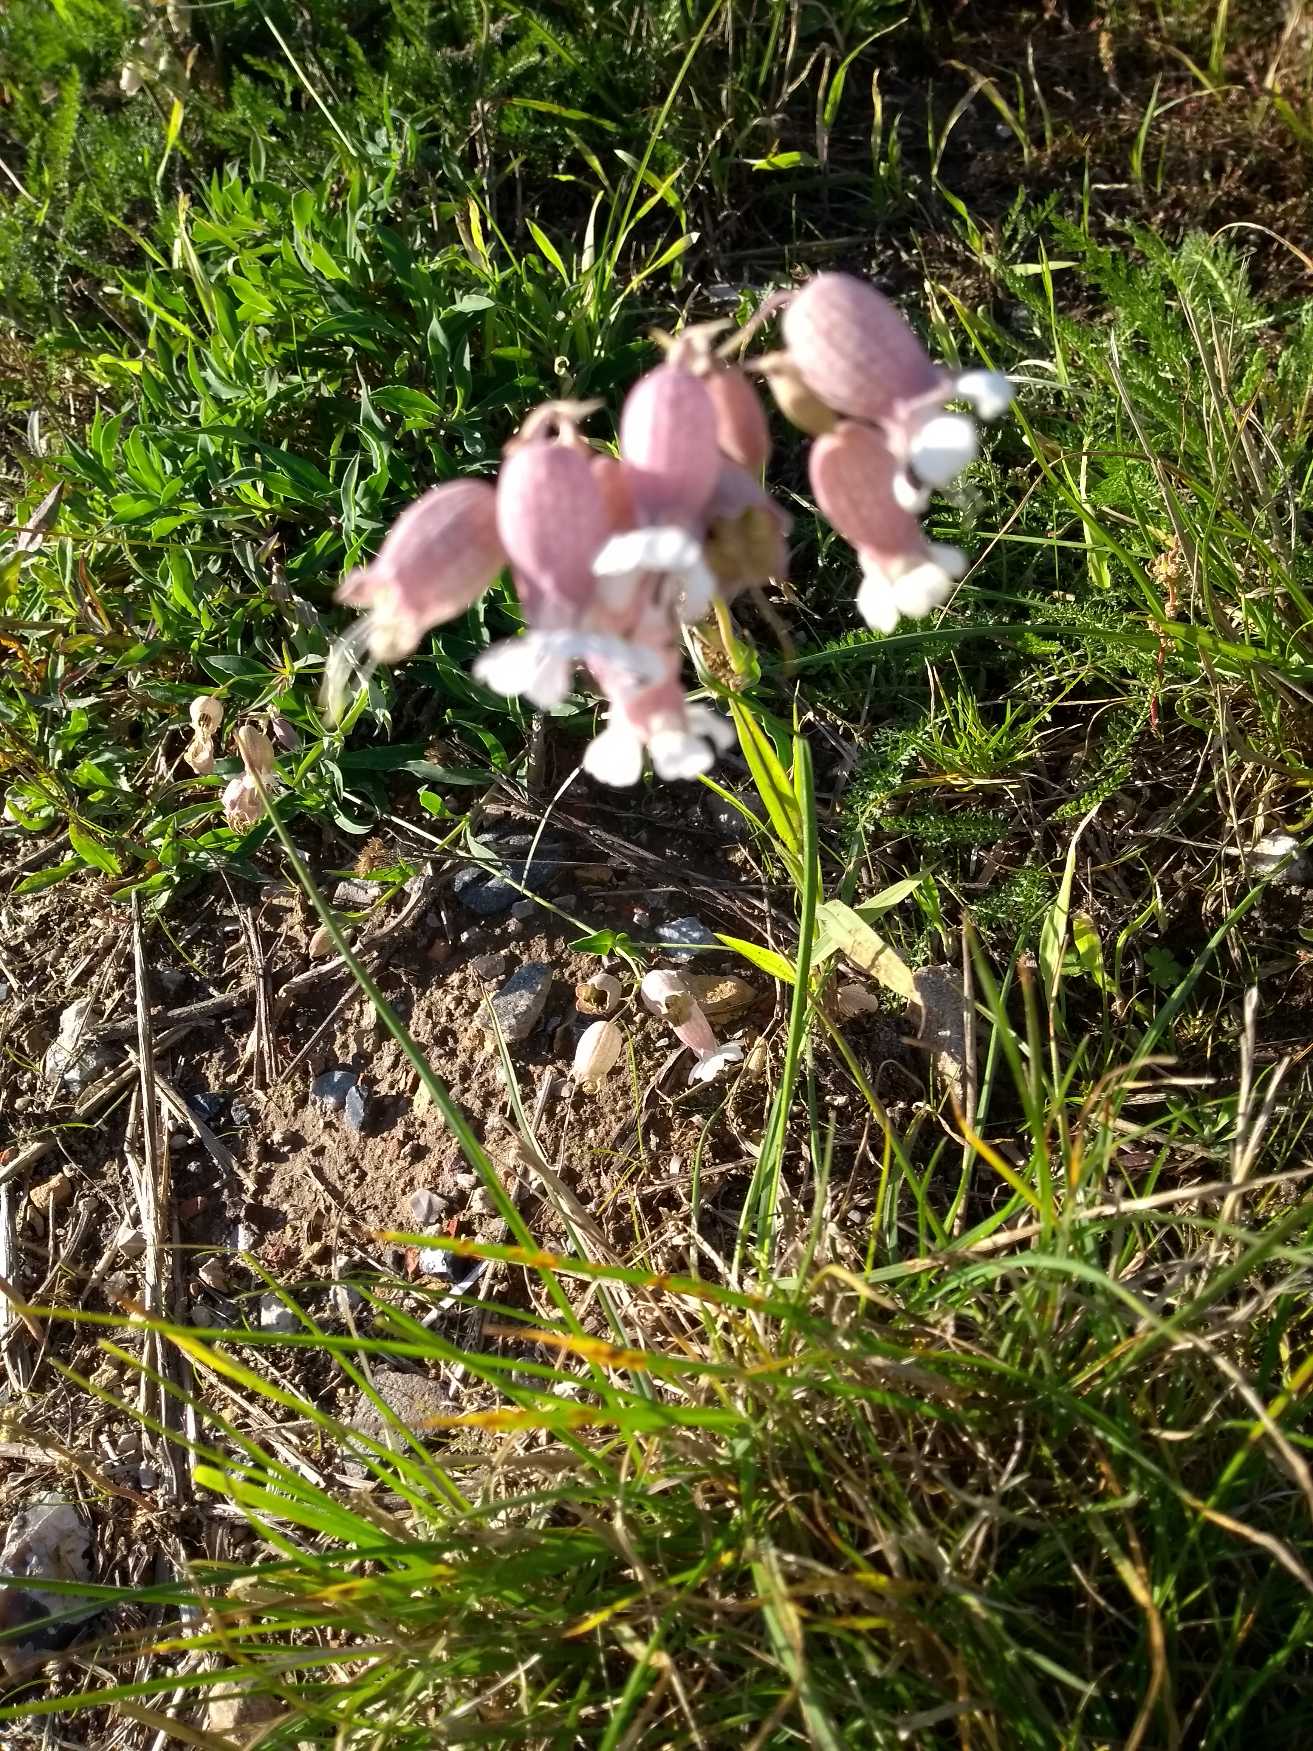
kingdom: Plantae
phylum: Tracheophyta
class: Magnoliopsida
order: Caryophyllales
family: Caryophyllaceae
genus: Silene
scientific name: Silene vulgaris
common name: Blæresmælde
